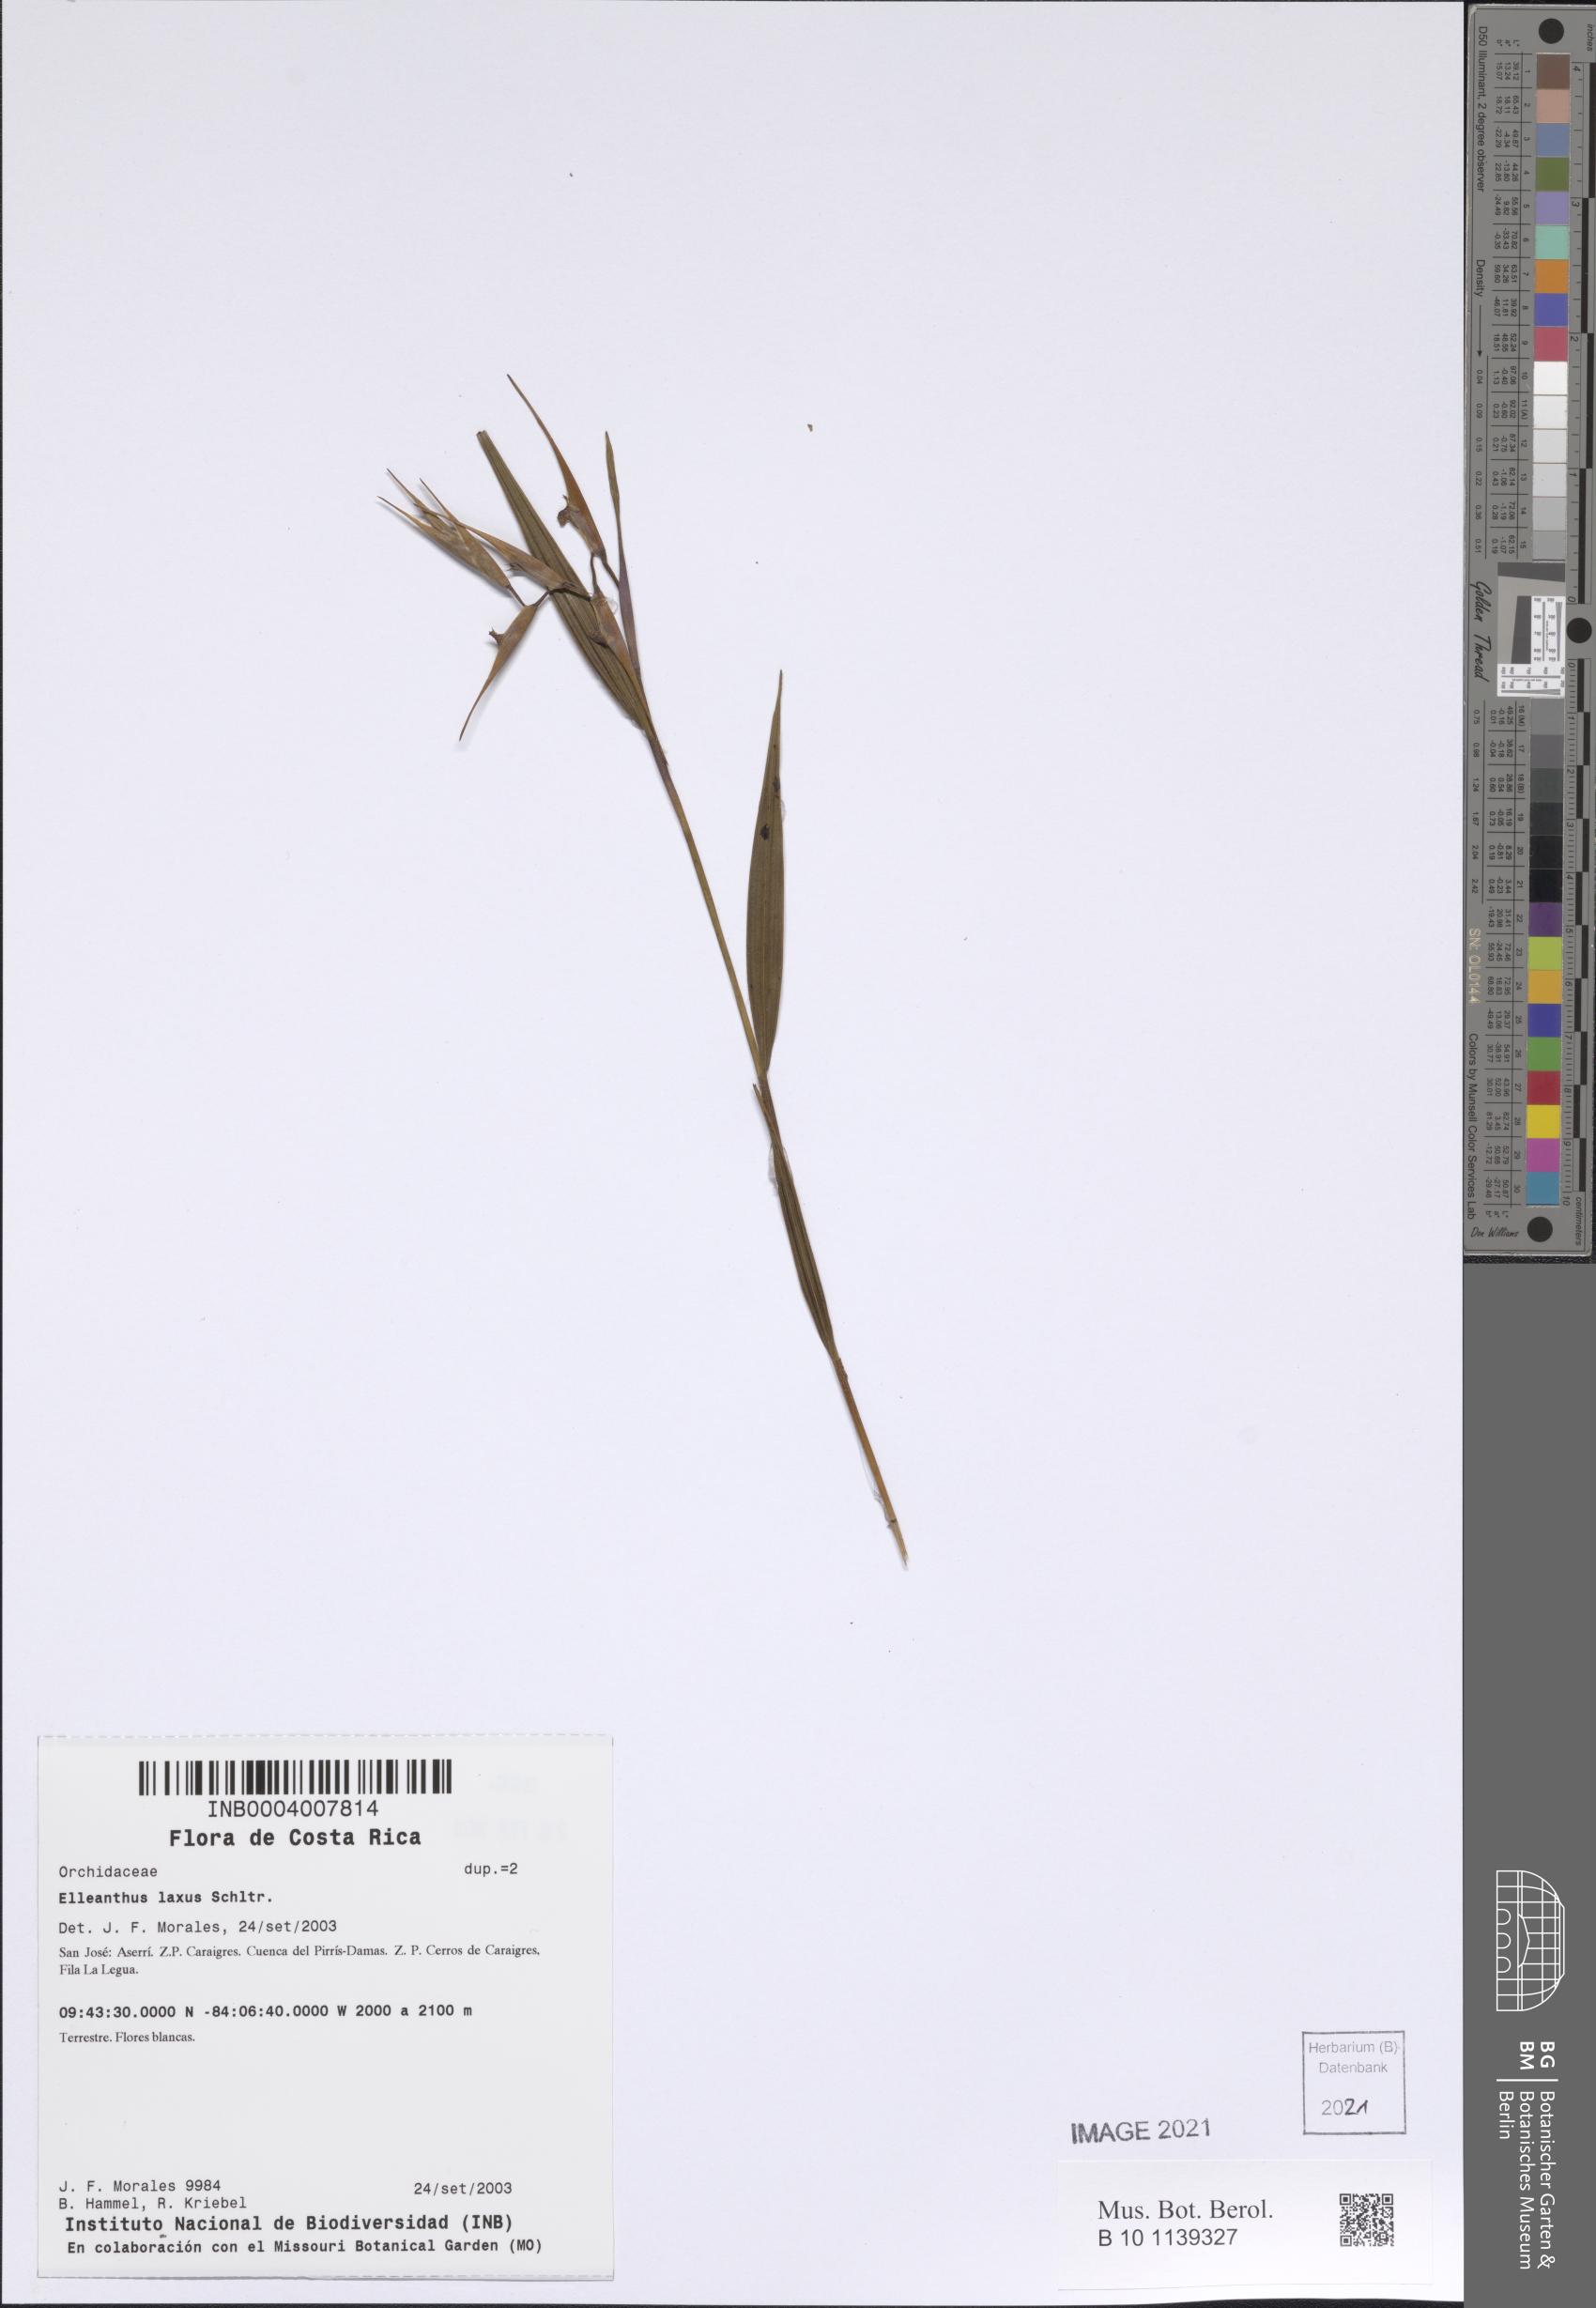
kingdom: Plantae
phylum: Tracheophyta
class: Liliopsida
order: Asparagales
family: Orchidaceae
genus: Elleanthus
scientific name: Elleanthus lancifolius
